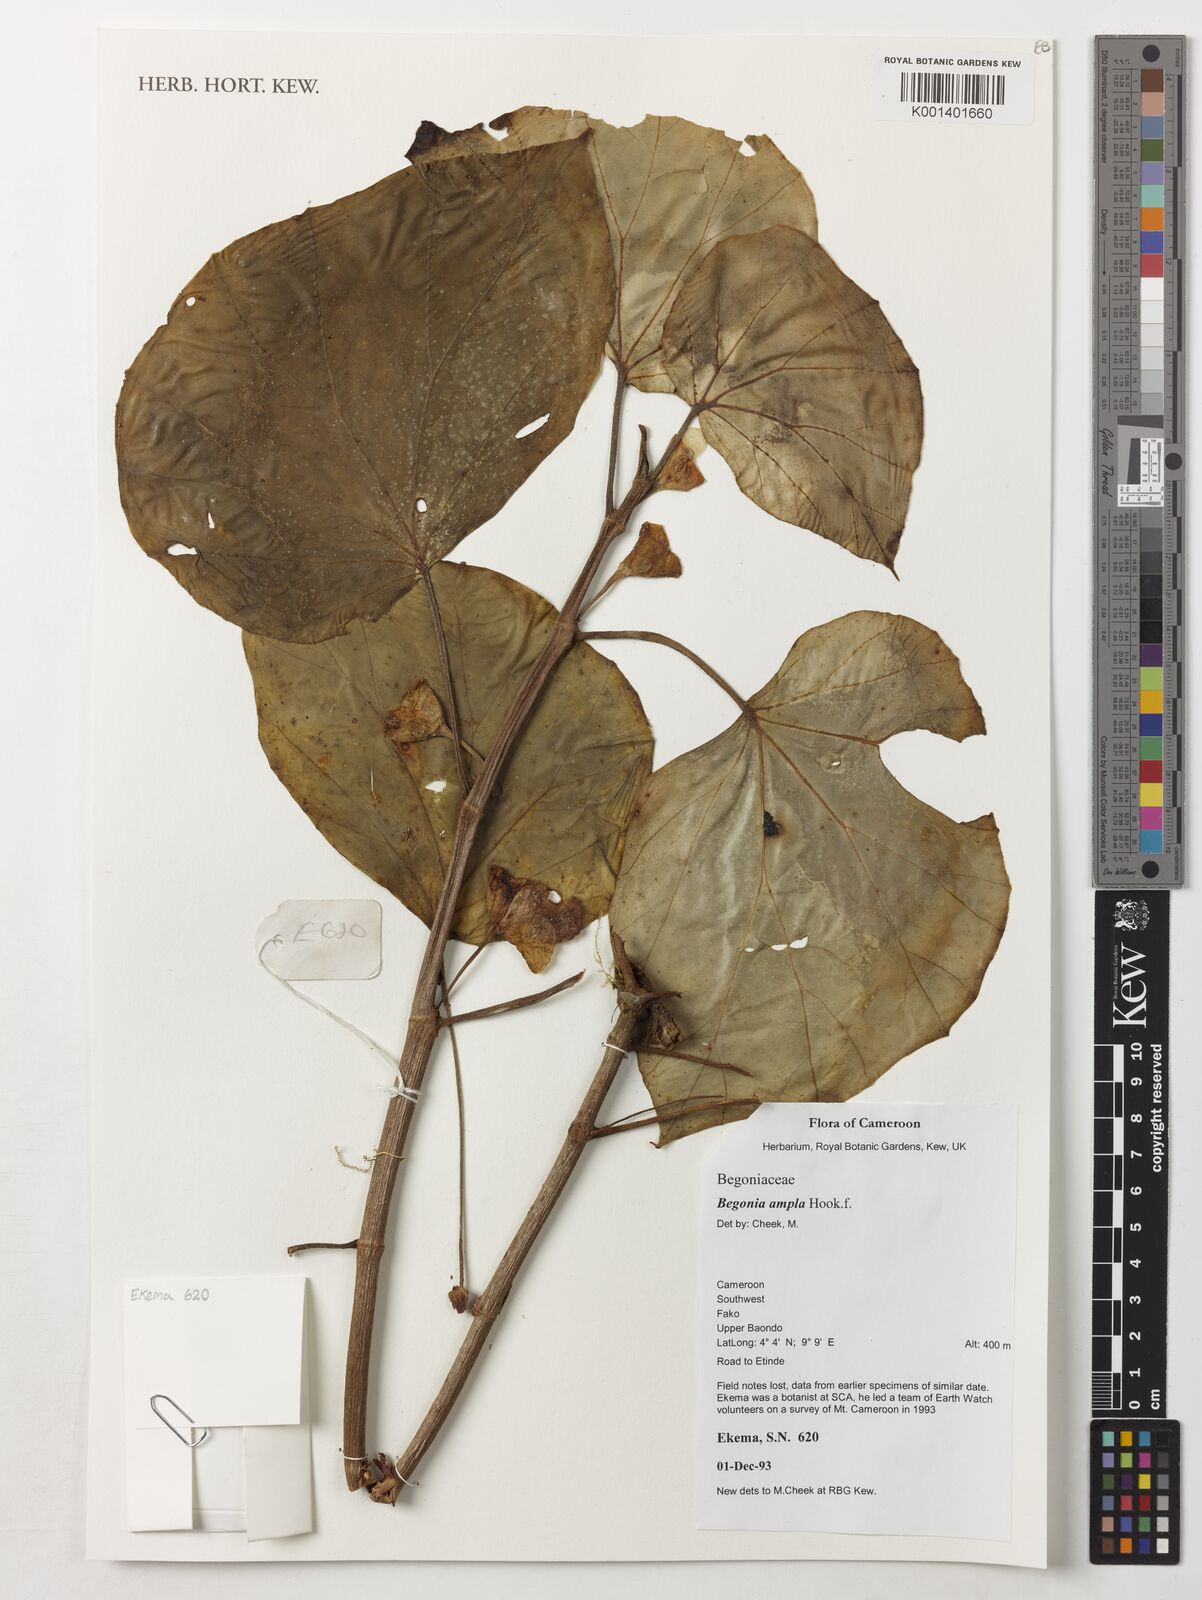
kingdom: Plantae
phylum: Tracheophyta
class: Magnoliopsida
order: Cucurbitales
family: Begoniaceae
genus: Begonia
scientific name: Begonia ampla
